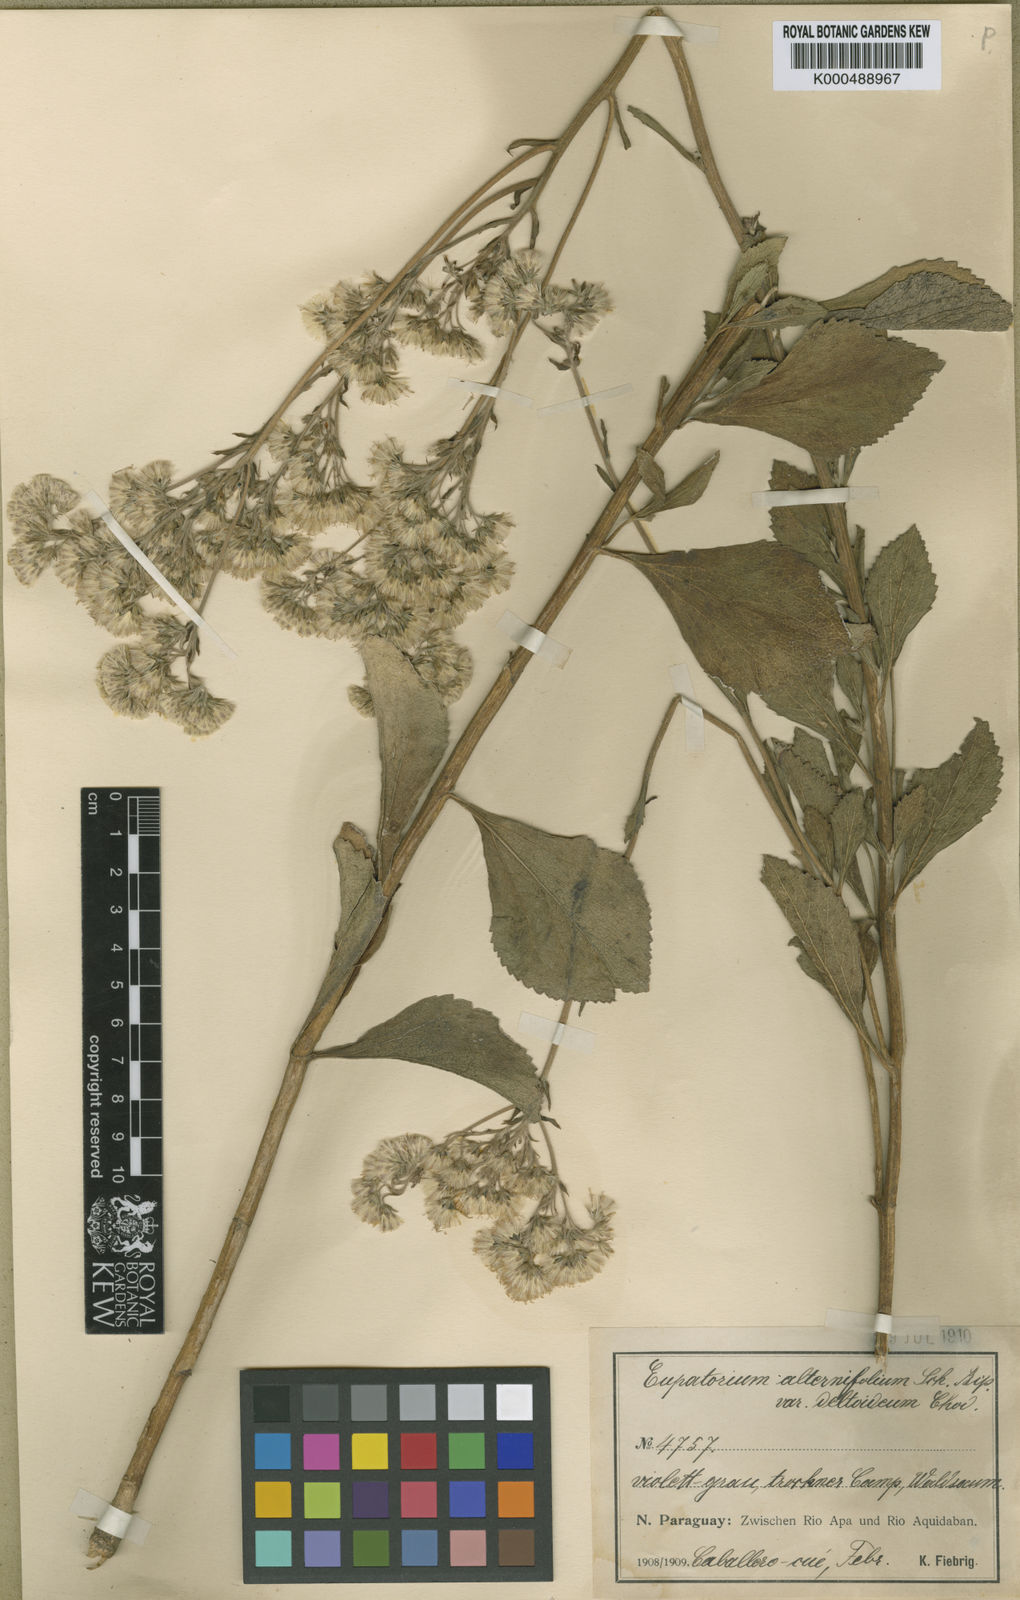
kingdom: Plantae
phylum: Tracheophyta
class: Magnoliopsida
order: Asterales
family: Asteraceae
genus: Gyptis
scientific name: Gyptis crassipes
